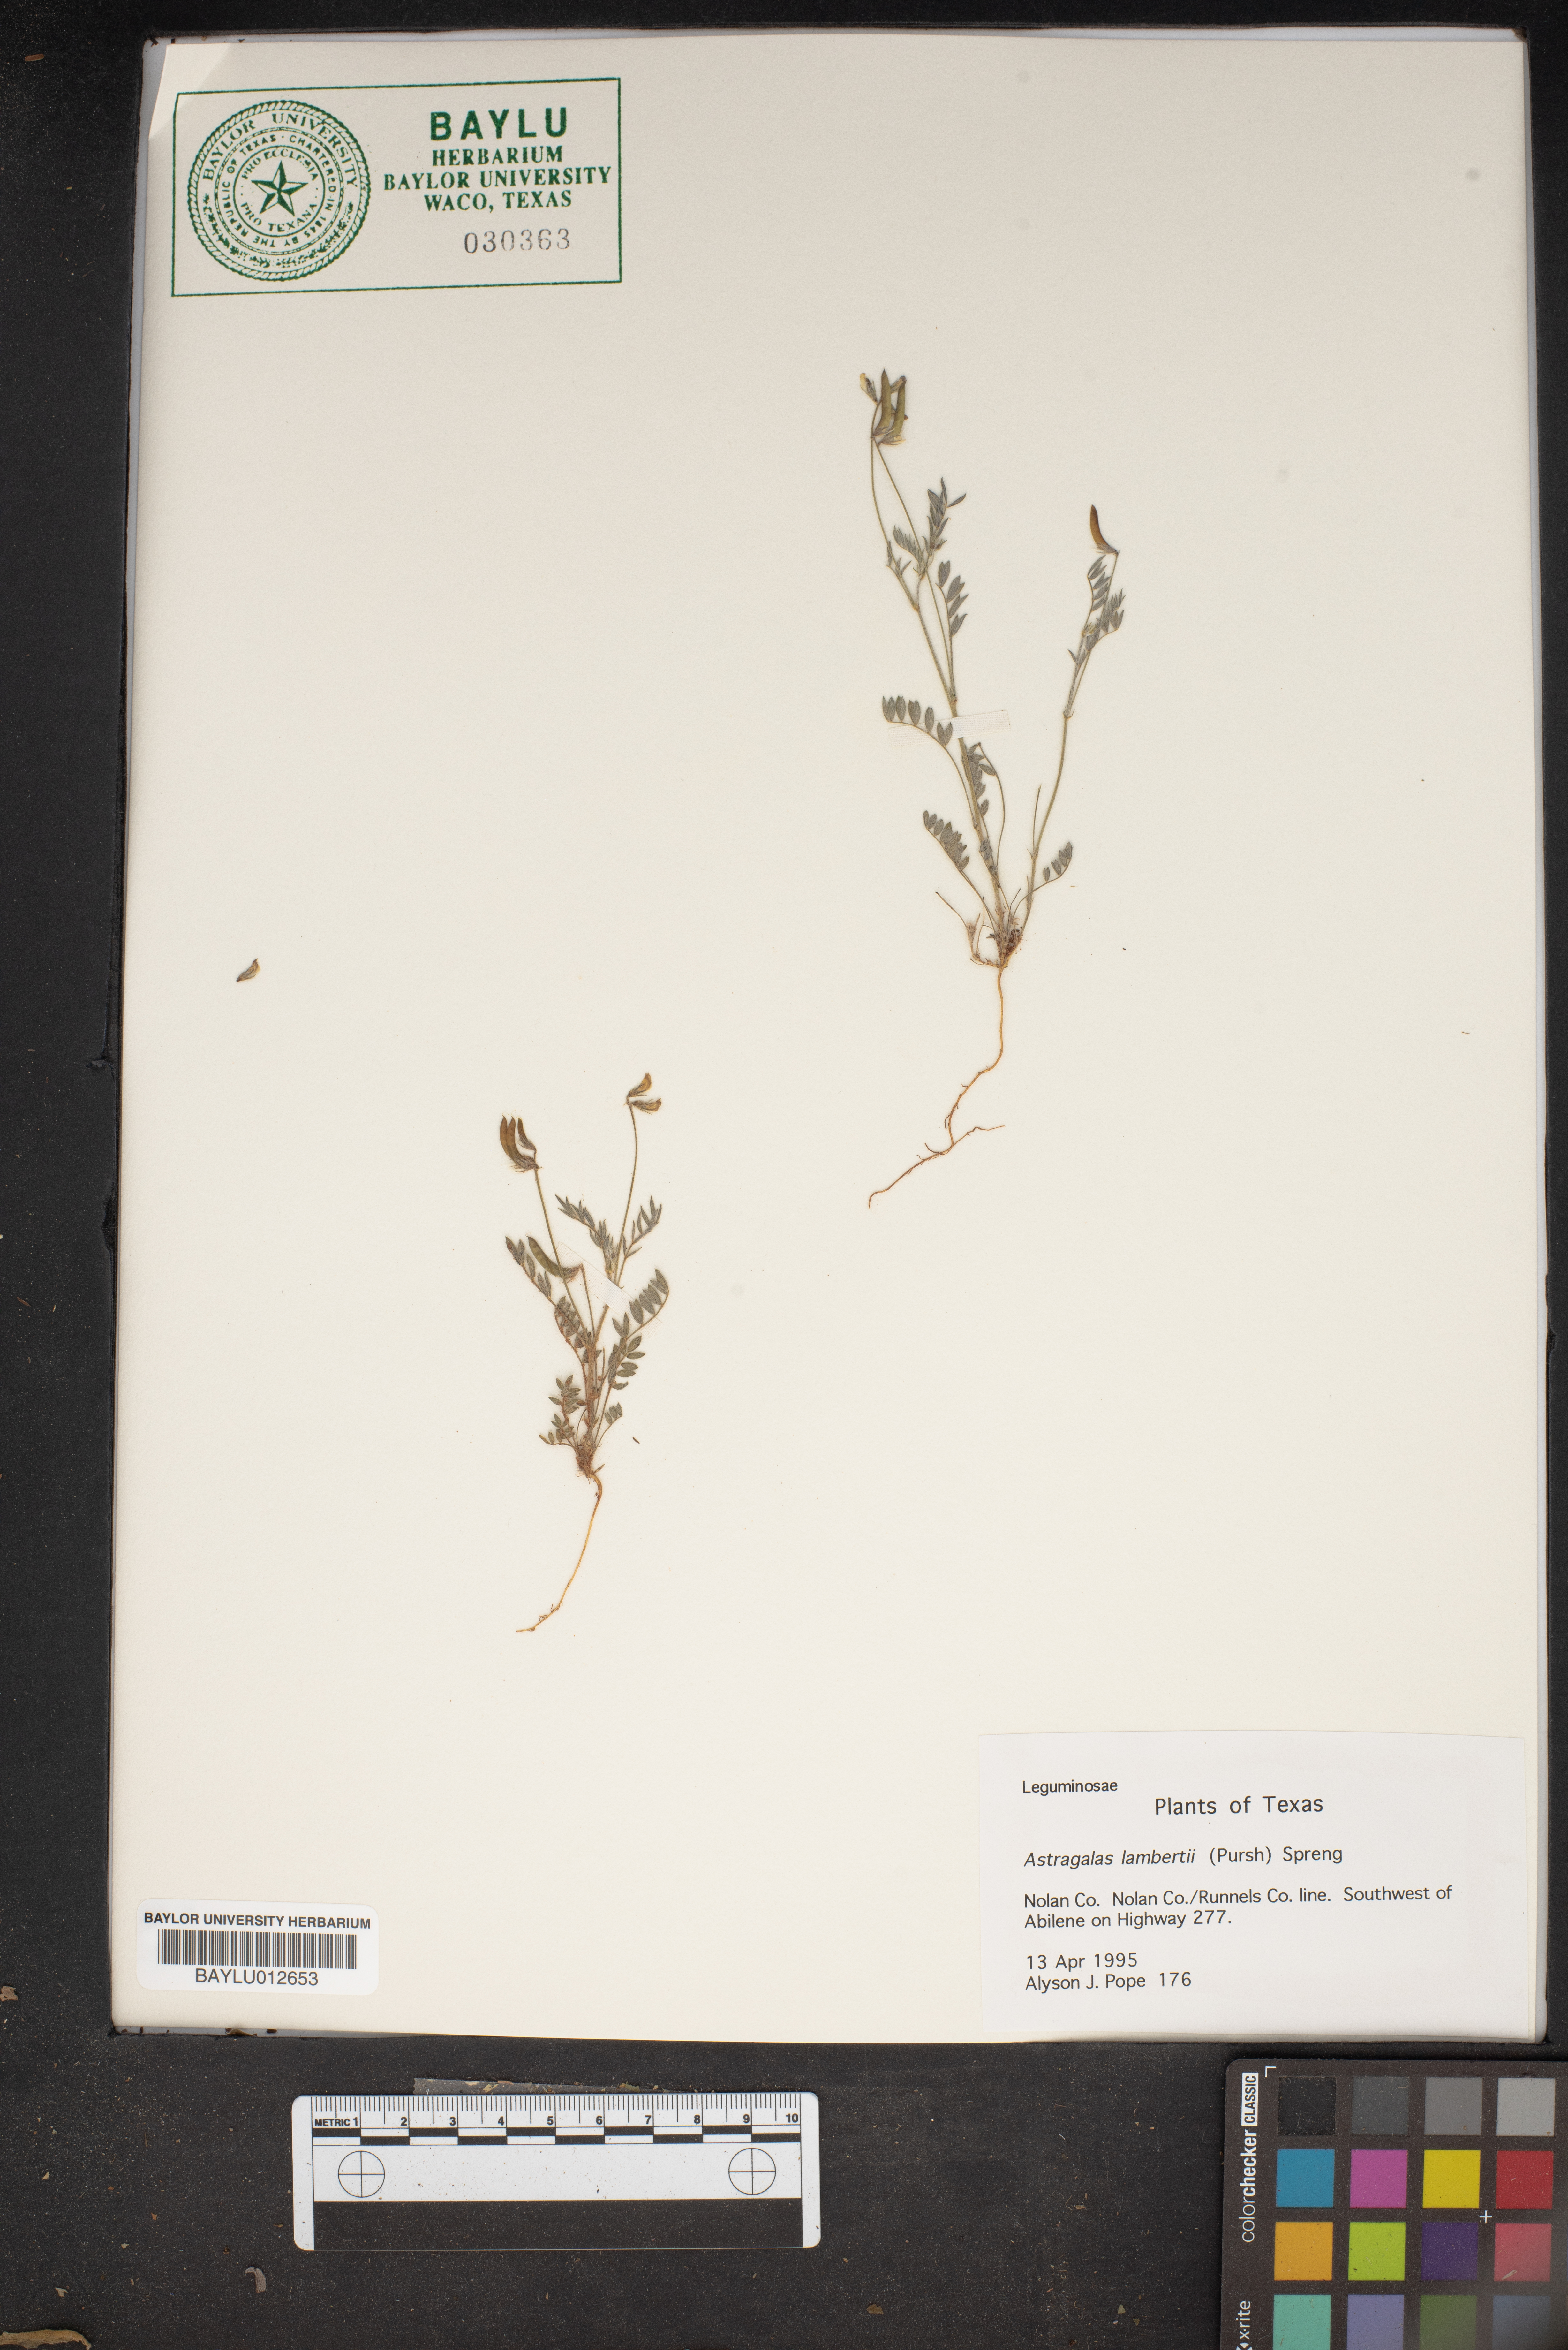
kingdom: Plantae
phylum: Tracheophyta
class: Magnoliopsida
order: Fabales
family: Fabaceae
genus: Oxytropis
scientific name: Oxytropis lambertii
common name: Purple locoweed
